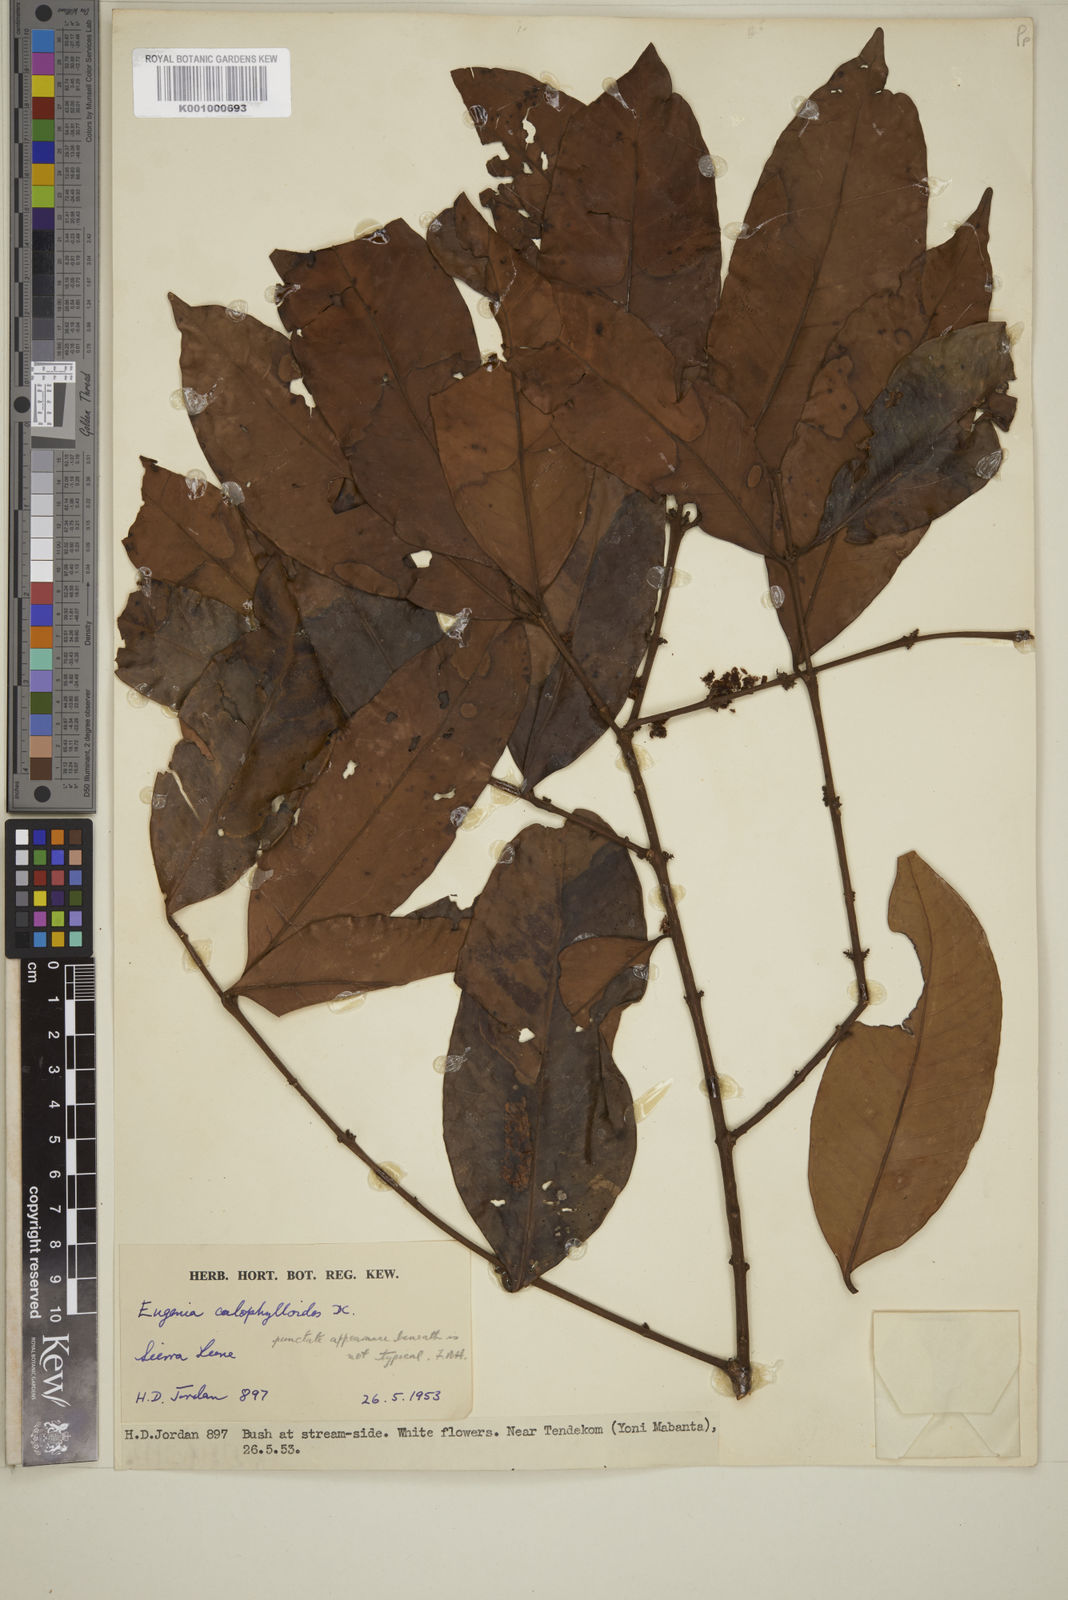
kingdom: Plantae
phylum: Tracheophyta
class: Magnoliopsida
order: Myrtales
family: Myrtaceae
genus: Eugenia
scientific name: Eugenia calophylloides
